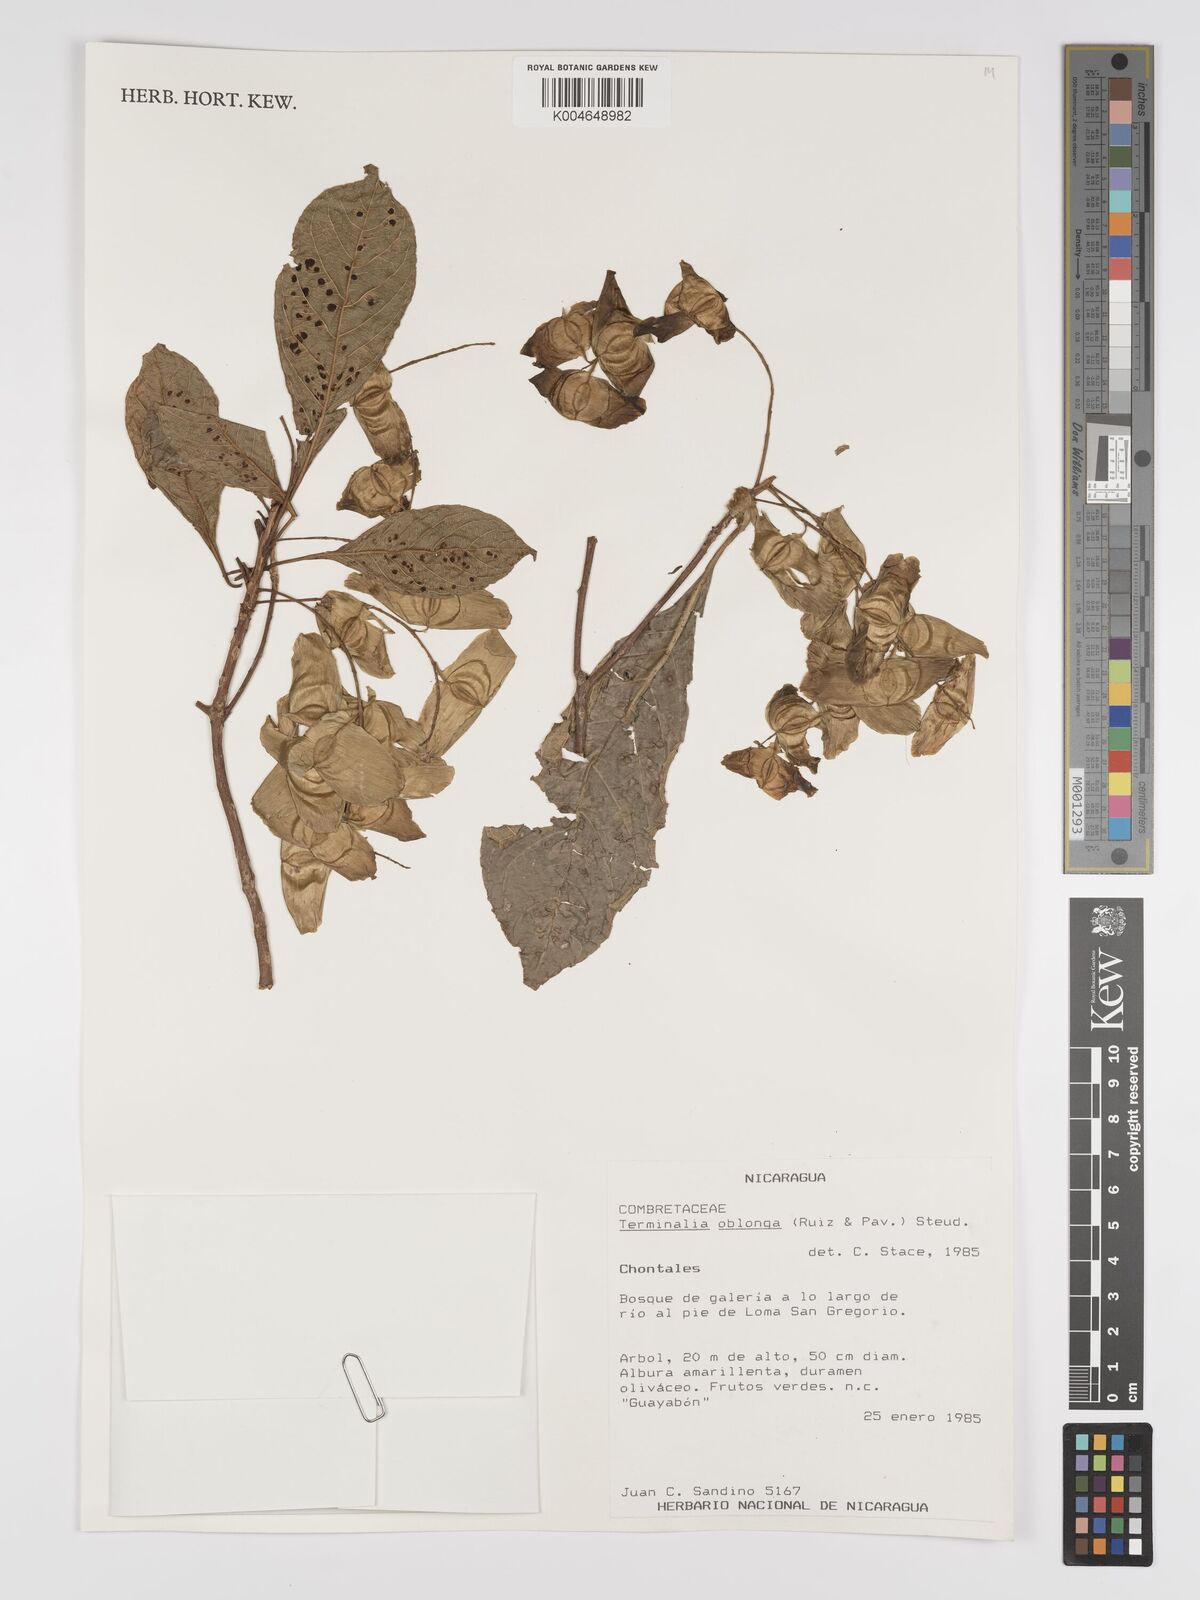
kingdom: Plantae
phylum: Tracheophyta
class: Magnoliopsida
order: Myrtales
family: Combretaceae
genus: Terminalia
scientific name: Terminalia oblonga
